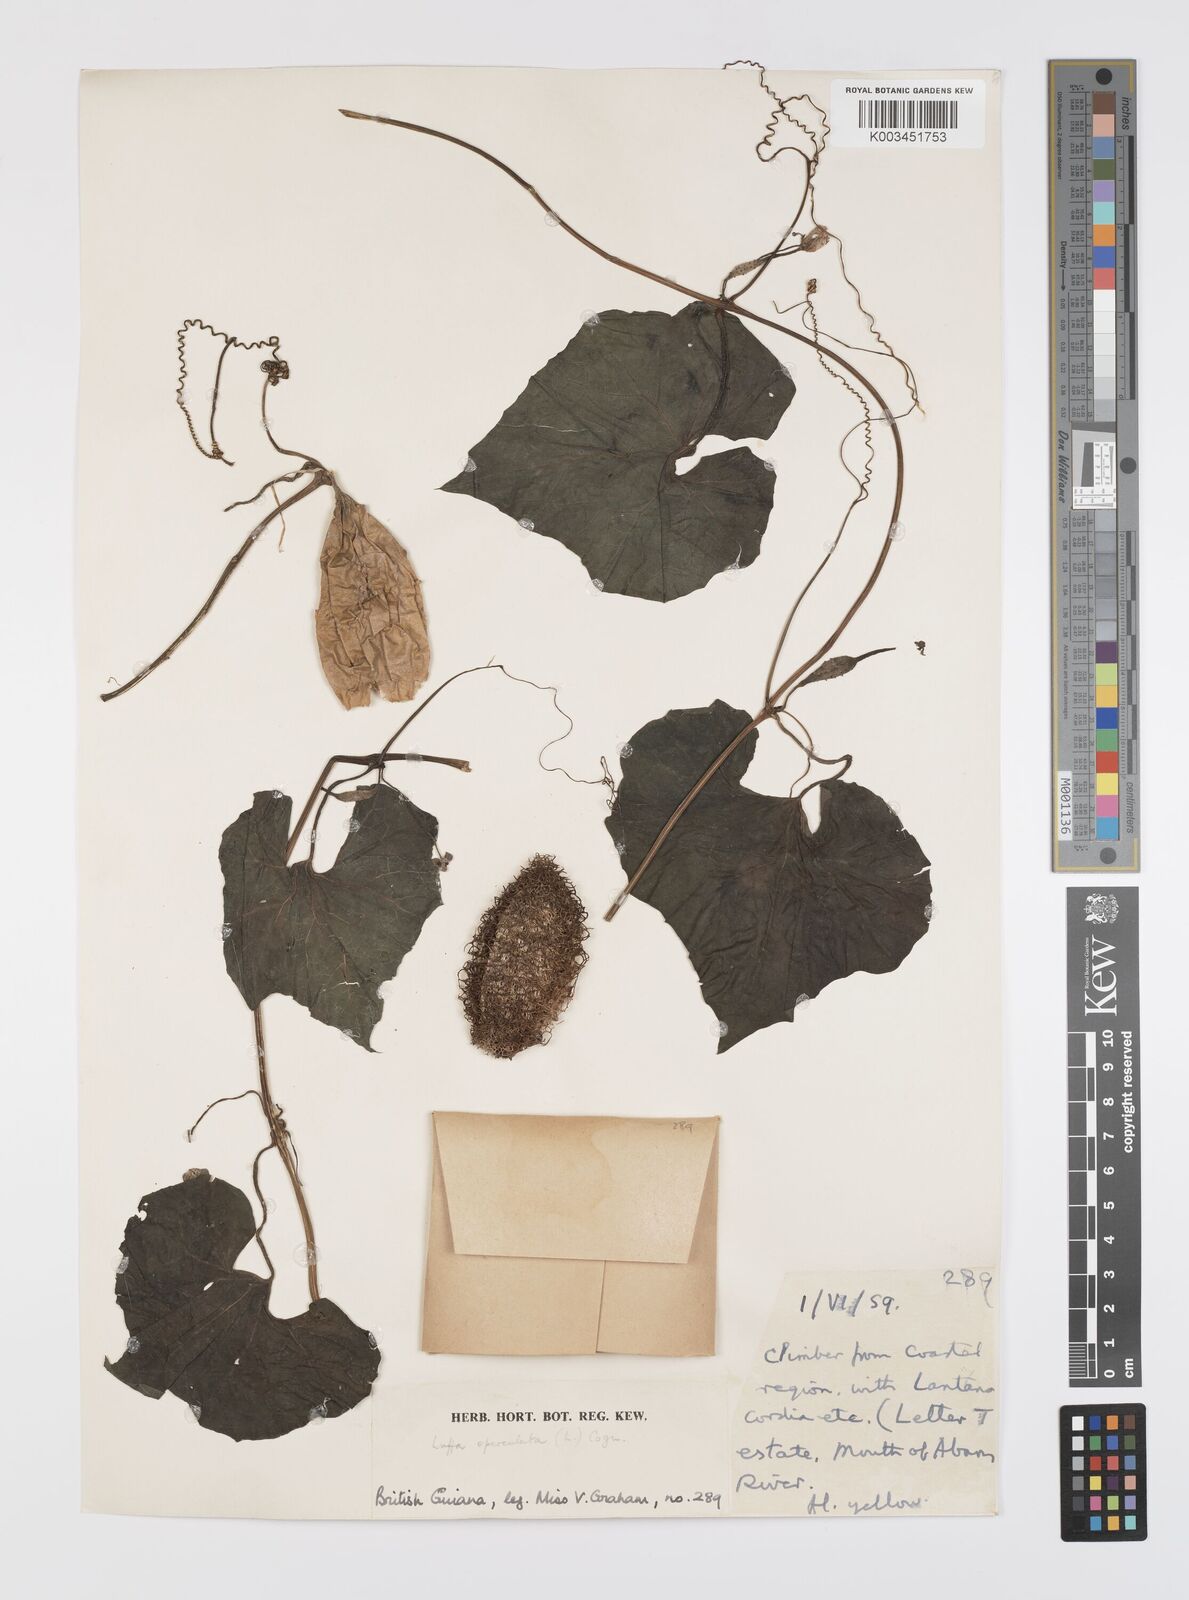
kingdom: Plantae
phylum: Tracheophyta
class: Magnoliopsida
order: Cucurbitales
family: Cucurbitaceae
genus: Luffa
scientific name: Luffa operculata
